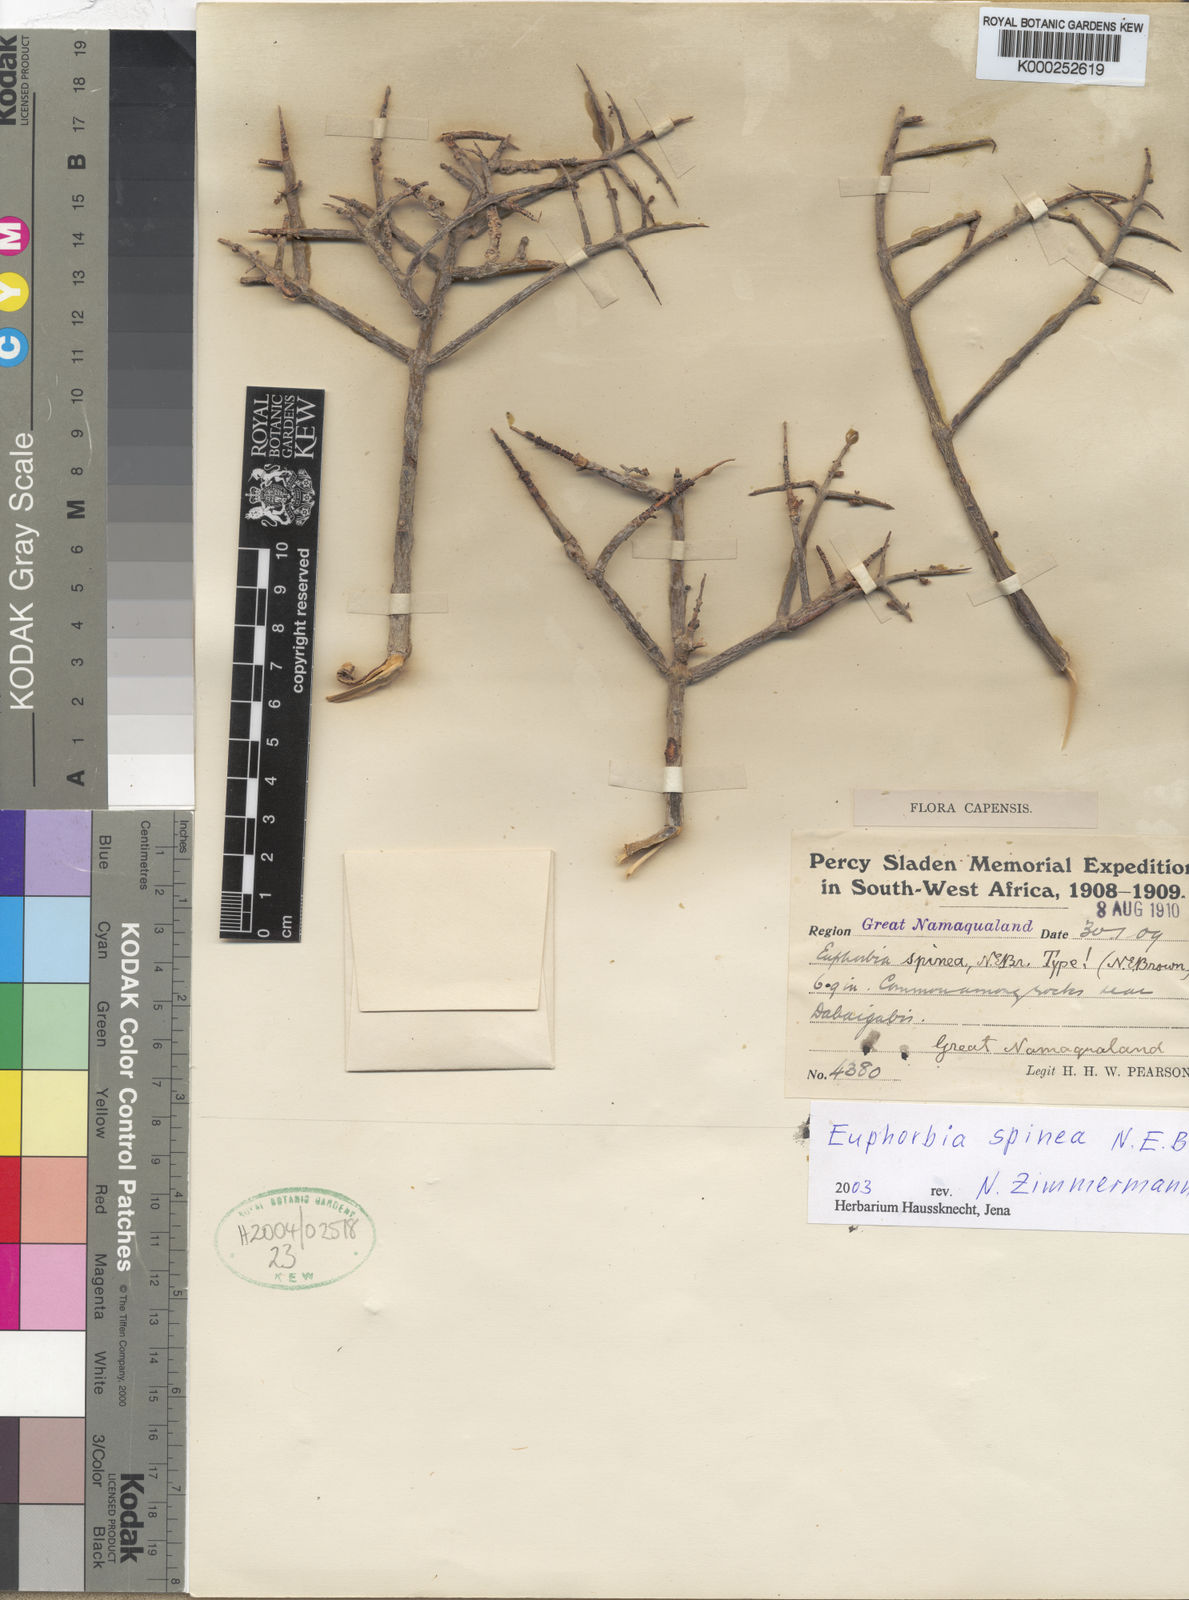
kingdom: Plantae
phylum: Tracheophyta
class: Magnoliopsida
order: Malpighiales
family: Euphorbiaceae
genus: Euphorbia
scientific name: Euphorbia spinea
